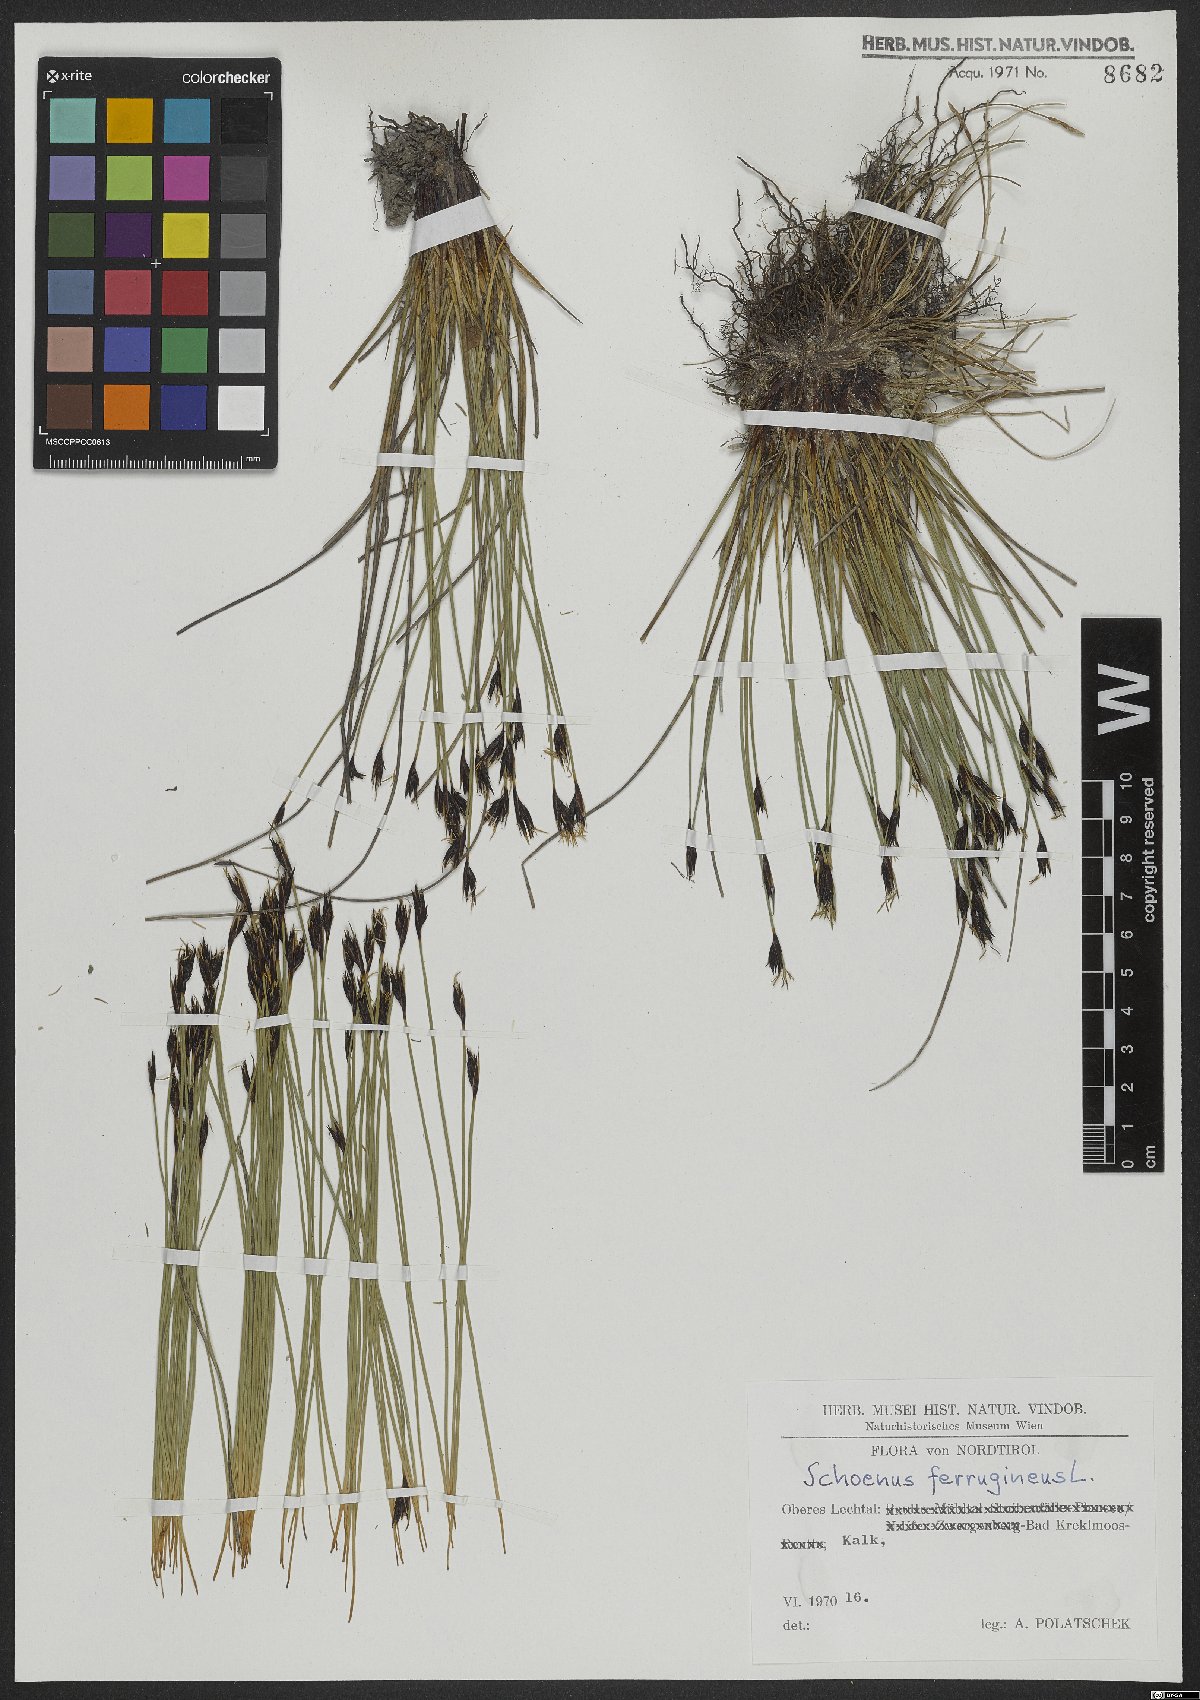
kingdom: Plantae
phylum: Tracheophyta
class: Liliopsida
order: Poales
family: Cyperaceae
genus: Schoenus
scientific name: Schoenus ferrugineus
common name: Brown bog-rush
